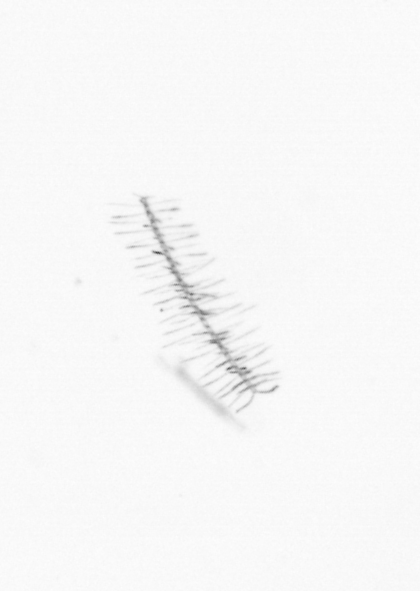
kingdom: Chromista
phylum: Ochrophyta
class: Bacillariophyceae
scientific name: Bacillariophyceae
